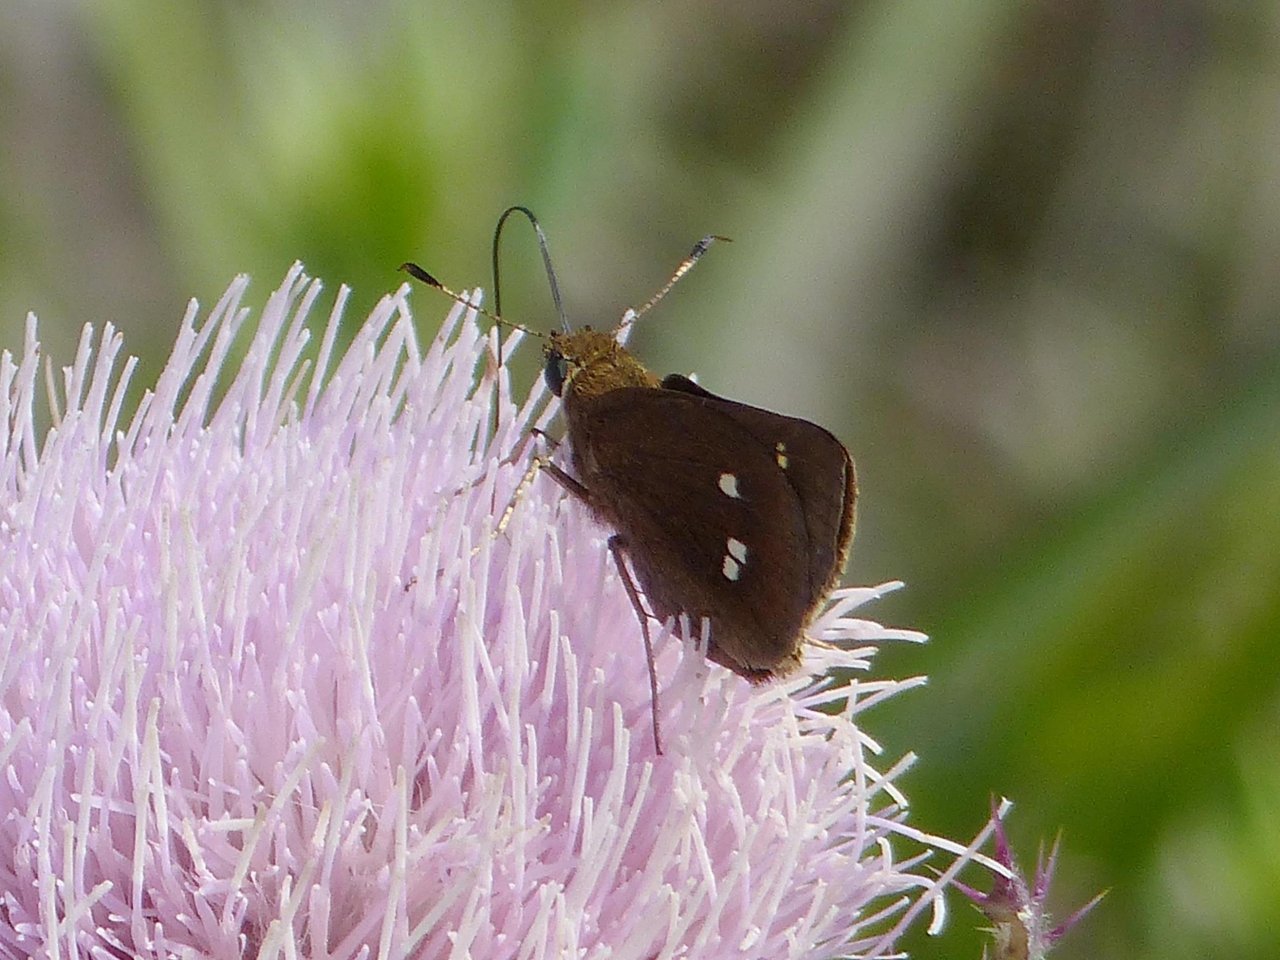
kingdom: Animalia
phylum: Arthropoda
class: Insecta
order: Lepidoptera
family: Hesperiidae
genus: Oligoria
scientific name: Oligoria maculata
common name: Twin-spot Skipper
